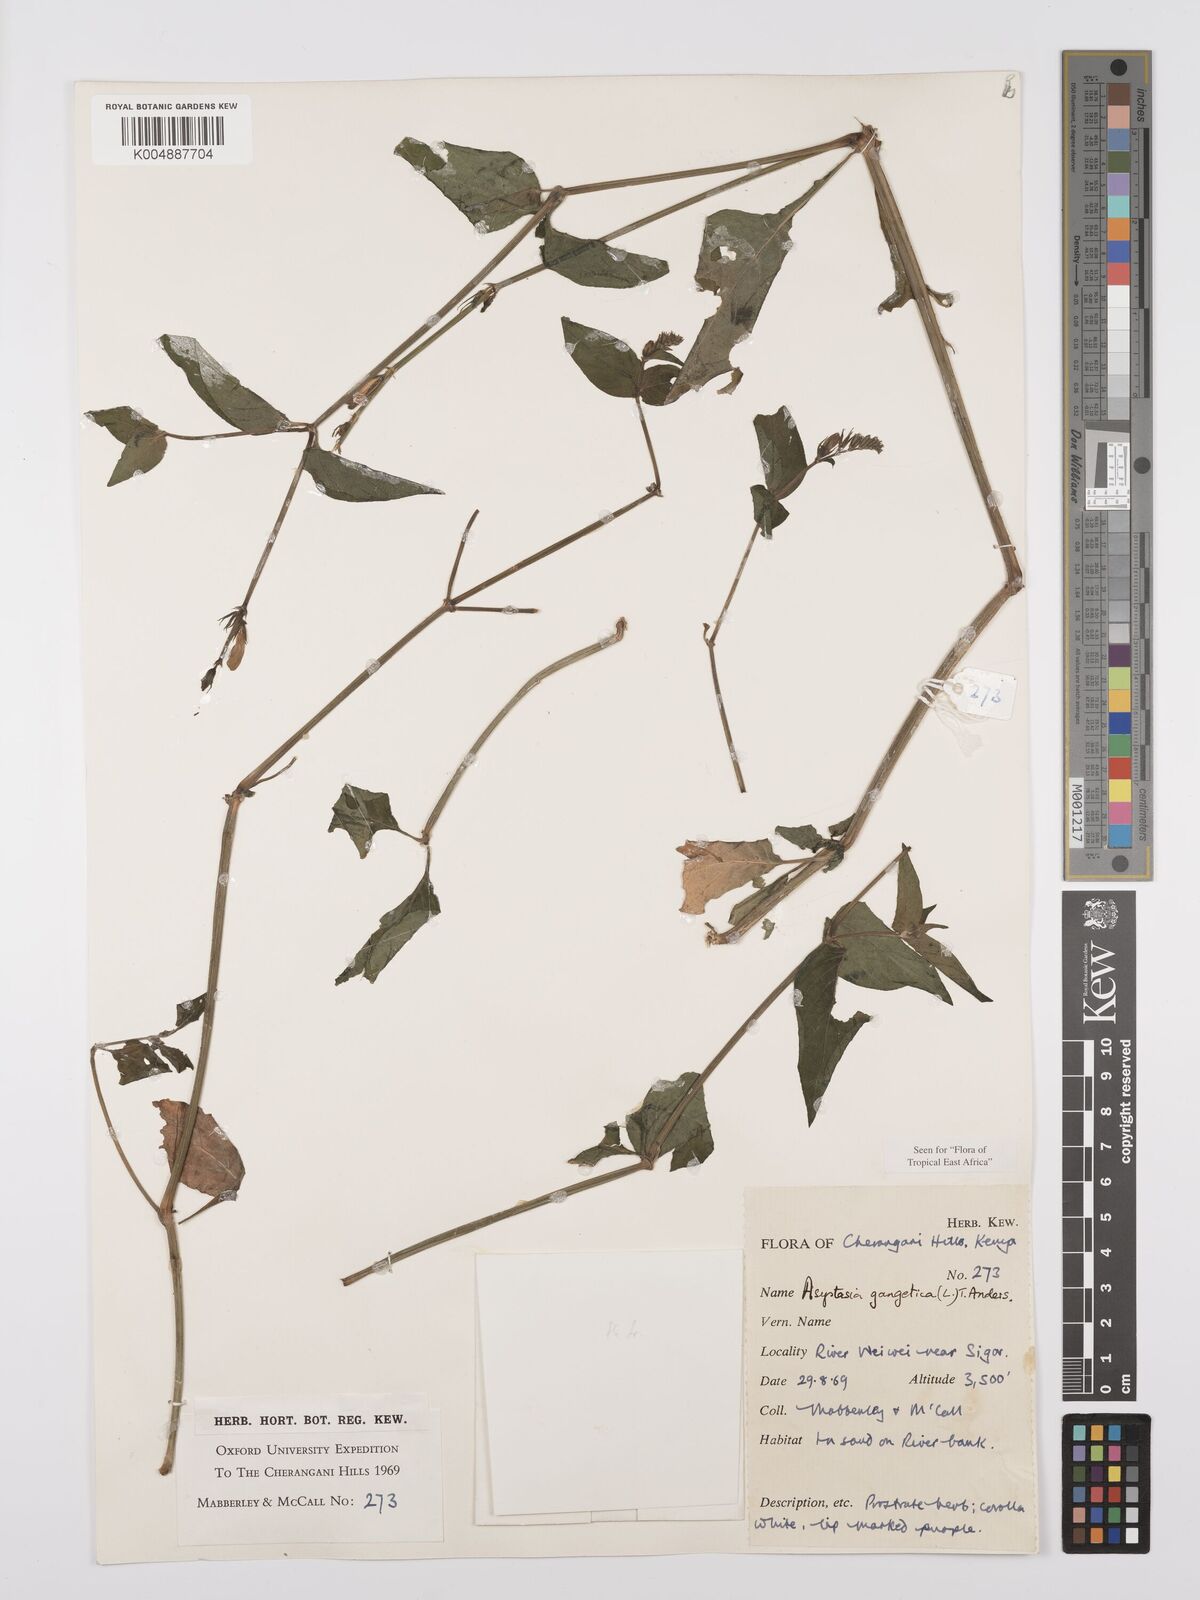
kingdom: Plantae
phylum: Tracheophyta
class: Magnoliopsida
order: Lamiales
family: Acanthaceae
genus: Asystasia
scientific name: Asystasia gangetica
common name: Chinese violet
